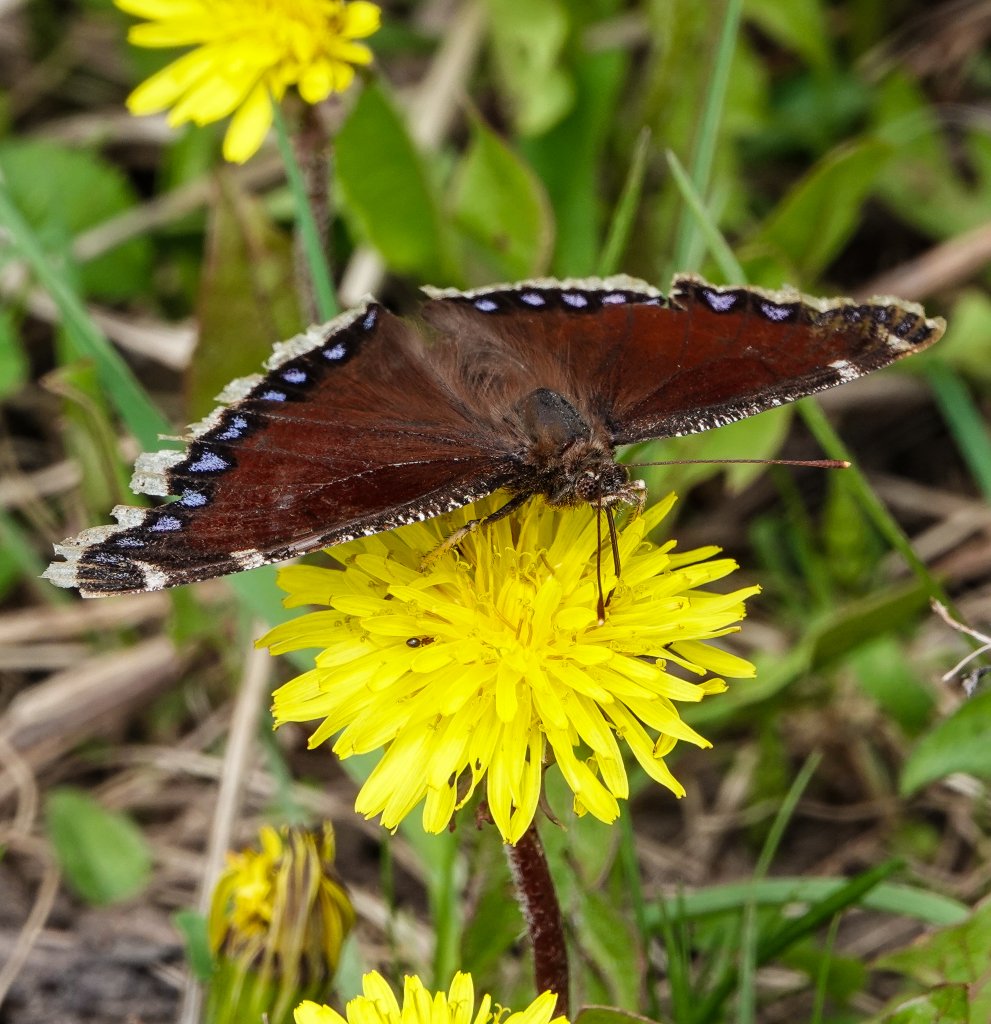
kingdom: Animalia
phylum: Arthropoda
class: Insecta
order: Lepidoptera
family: Nymphalidae
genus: Nymphalis
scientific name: Nymphalis antiopa
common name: Mourning Cloak
